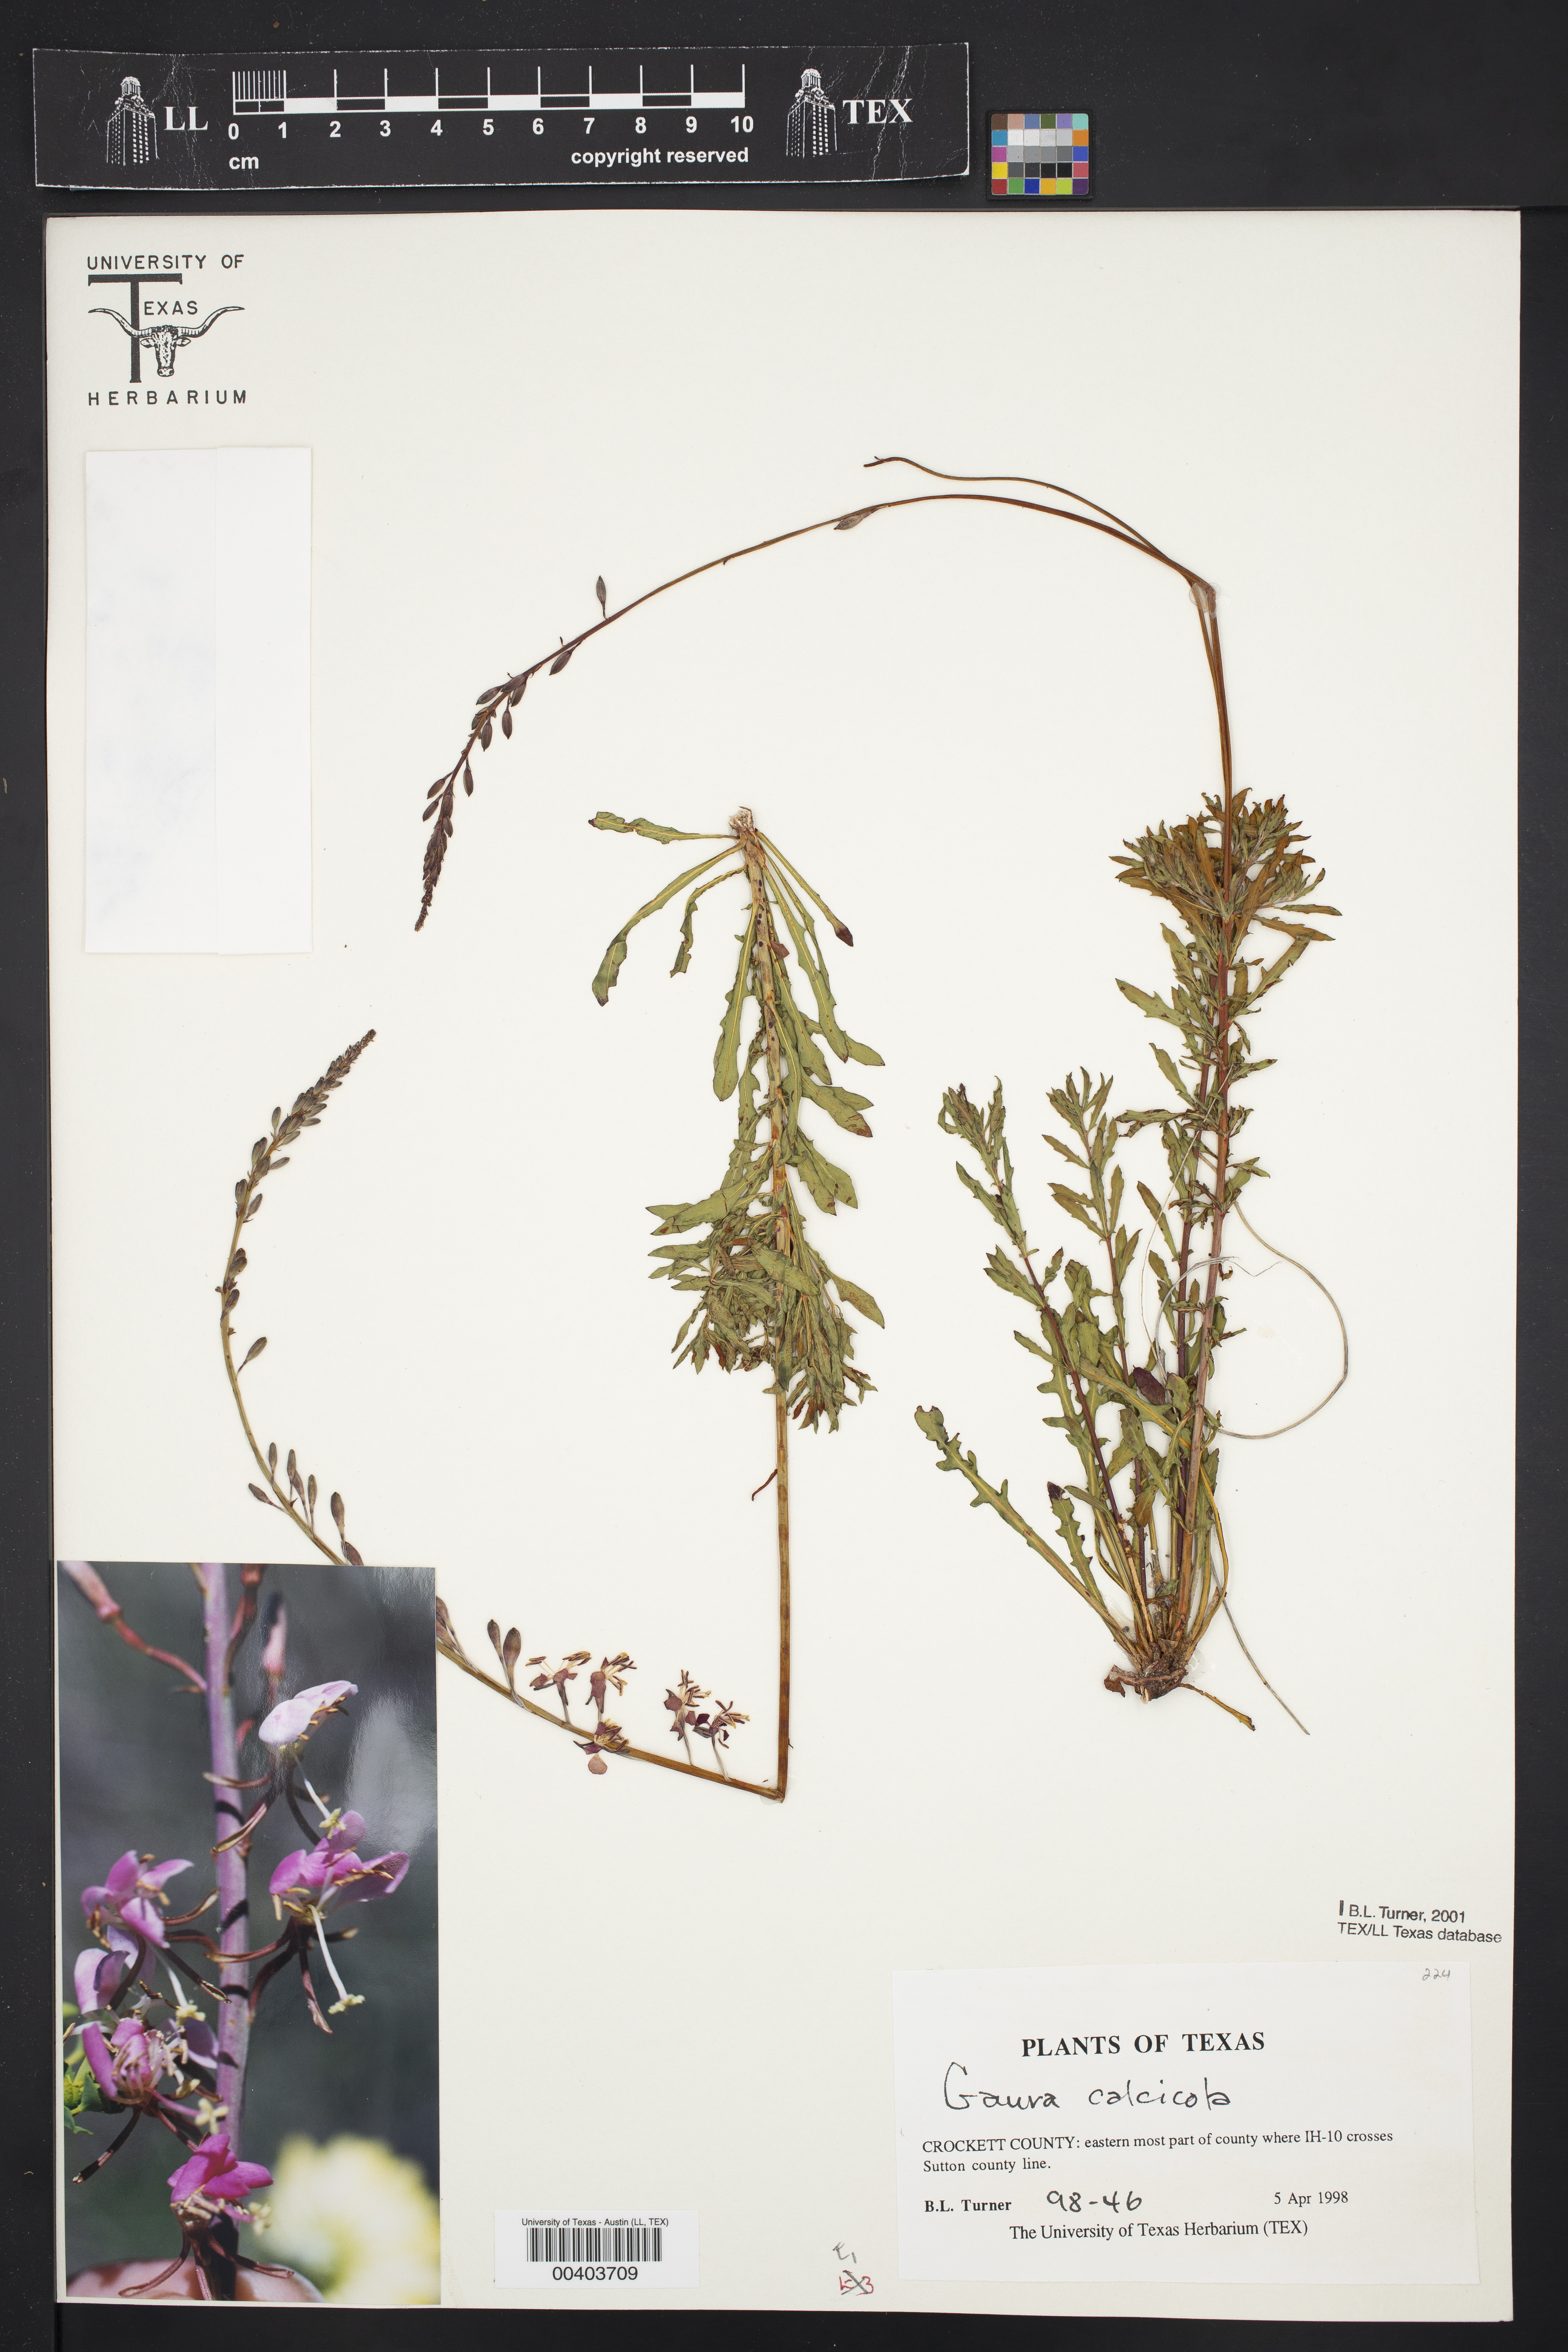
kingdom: Plantae
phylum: Tracheophyta
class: Magnoliopsida
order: Myrtales
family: Onagraceae
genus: Oenothera
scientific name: Oenothera calcicola
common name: Texas beeblossom
